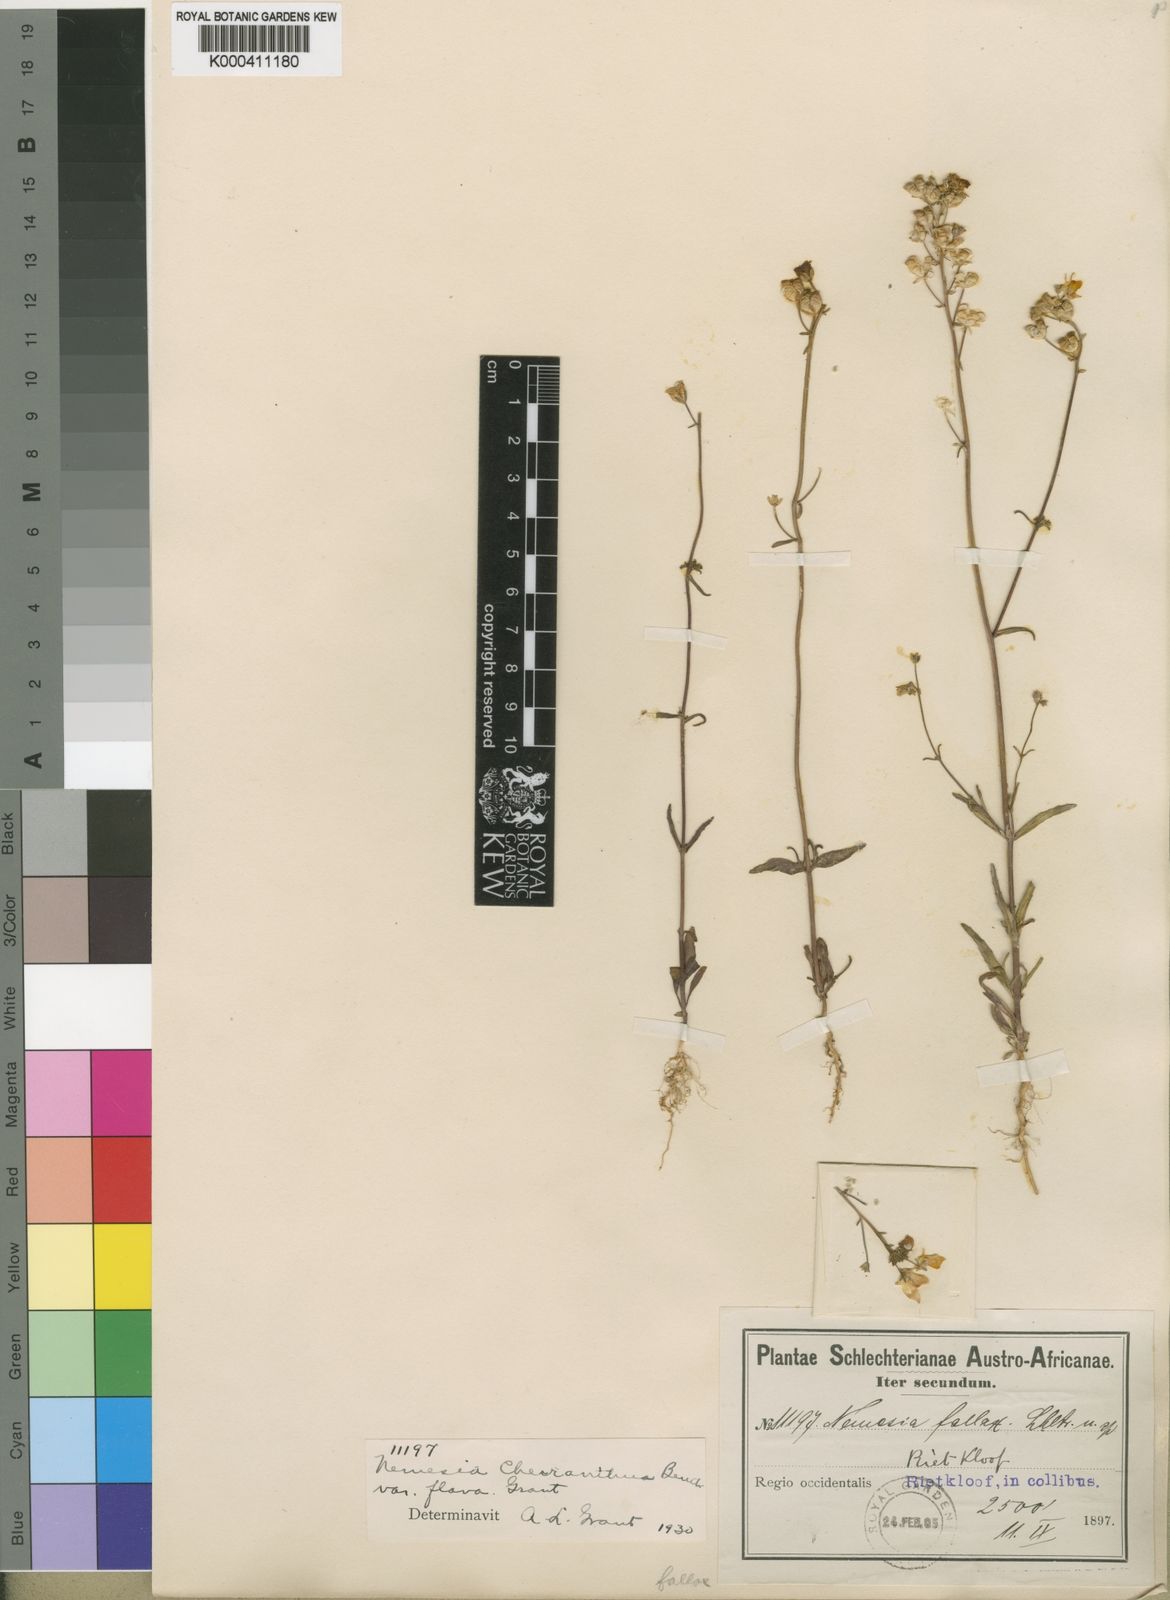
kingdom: Plantae
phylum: Tracheophyta
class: Magnoliopsida
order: Lamiales
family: Scrophulariaceae
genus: Nemesia
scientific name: Nemesia cheiranthus
